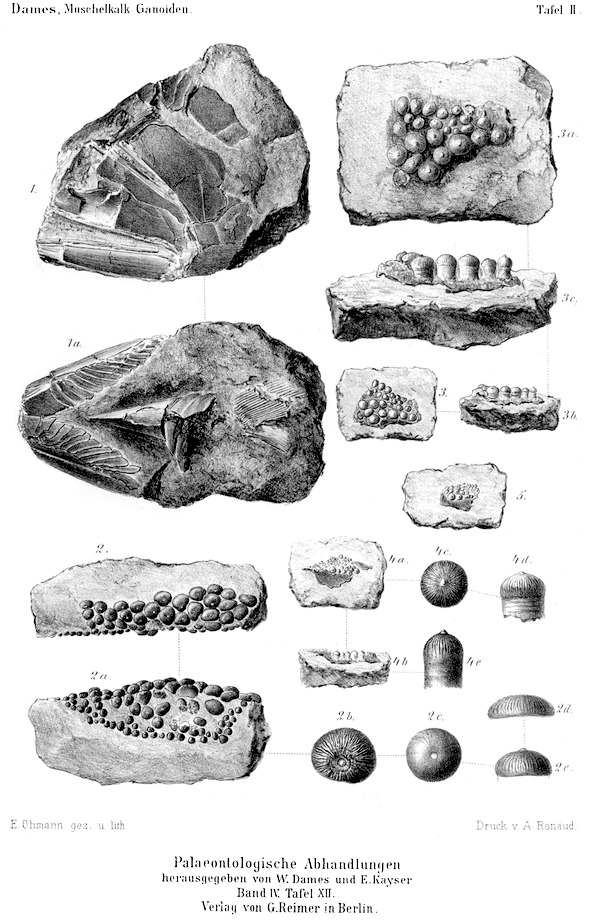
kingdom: Animalia
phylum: Chordata
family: Colobodontidae
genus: Colobodus
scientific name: Colobodus frequens
